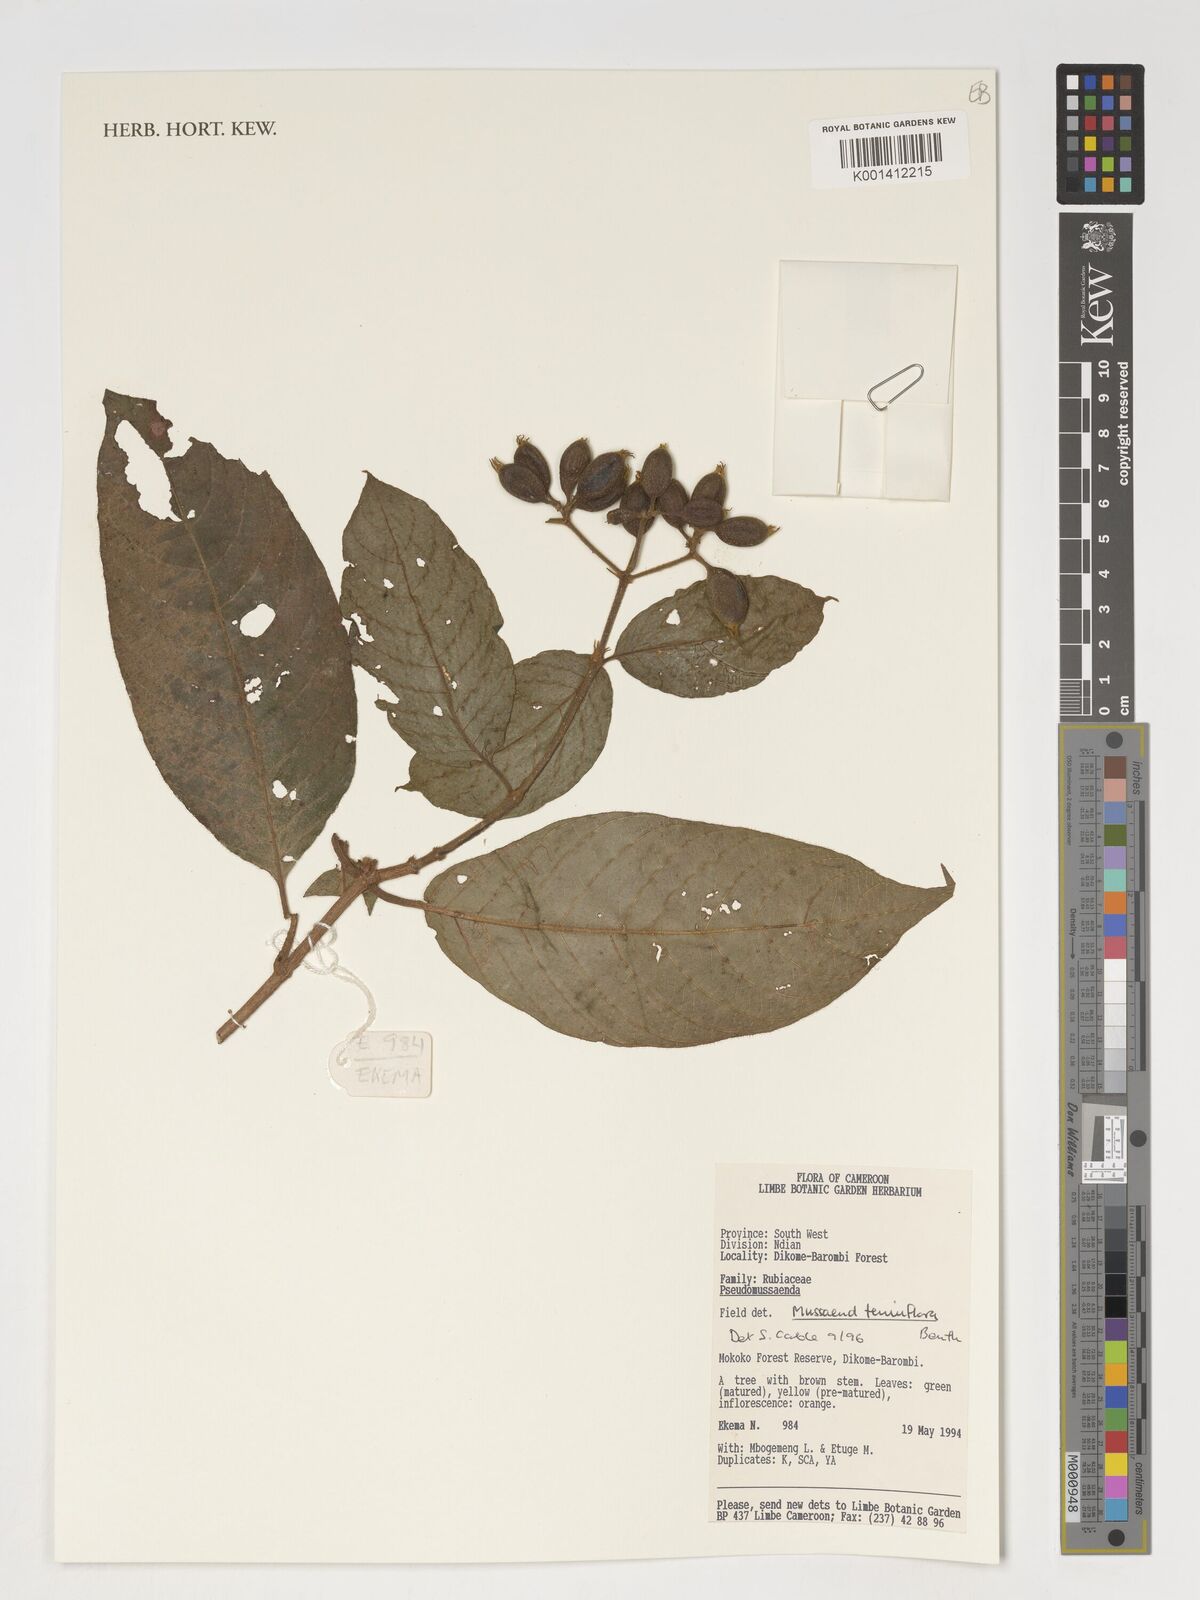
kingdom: Plantae
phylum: Tracheophyta
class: Magnoliopsida
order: Gentianales
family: Rubiaceae
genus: Mussaenda
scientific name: Mussaenda tenuiflora
